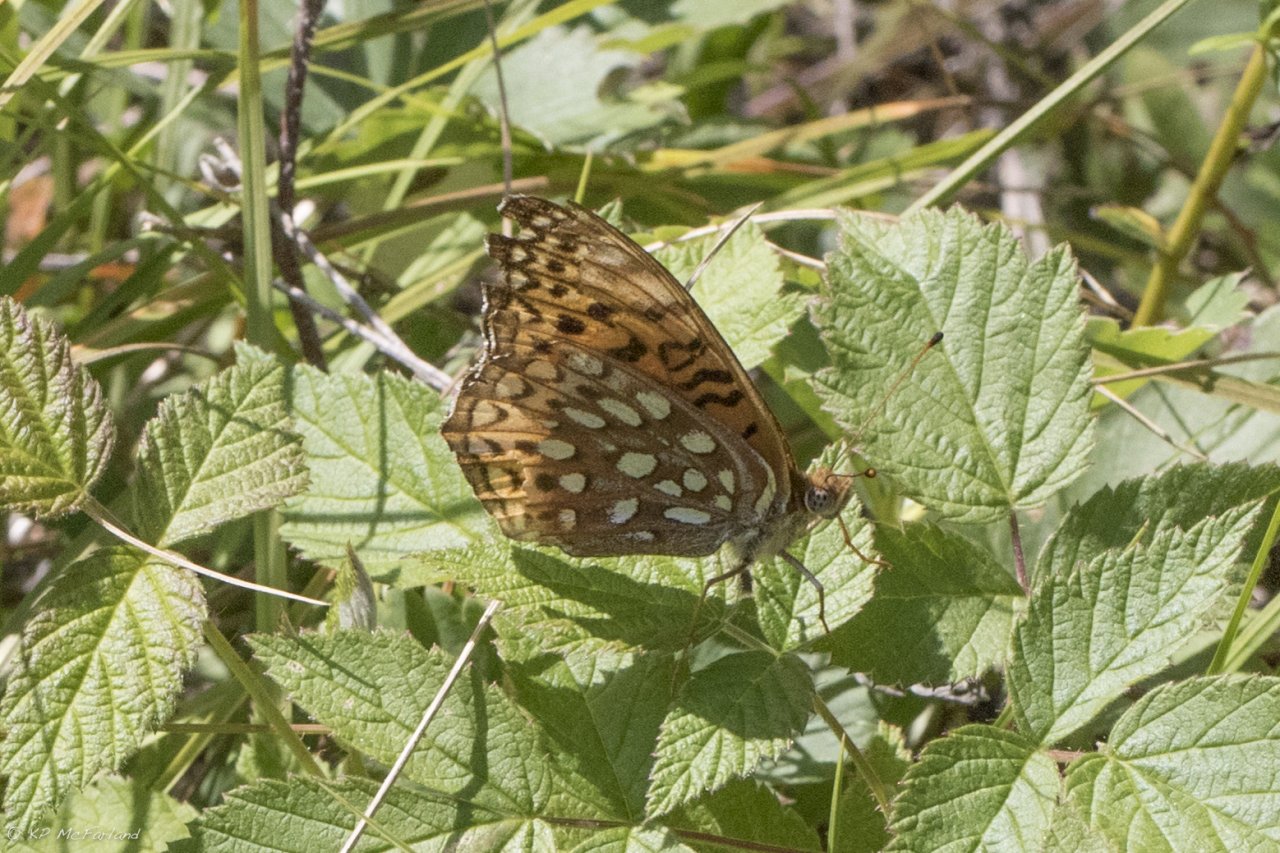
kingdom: Animalia
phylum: Arthropoda
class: Insecta
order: Lepidoptera
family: Nymphalidae
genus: Speyeria
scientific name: Speyeria atlantis
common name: Atlantis Fritillary
